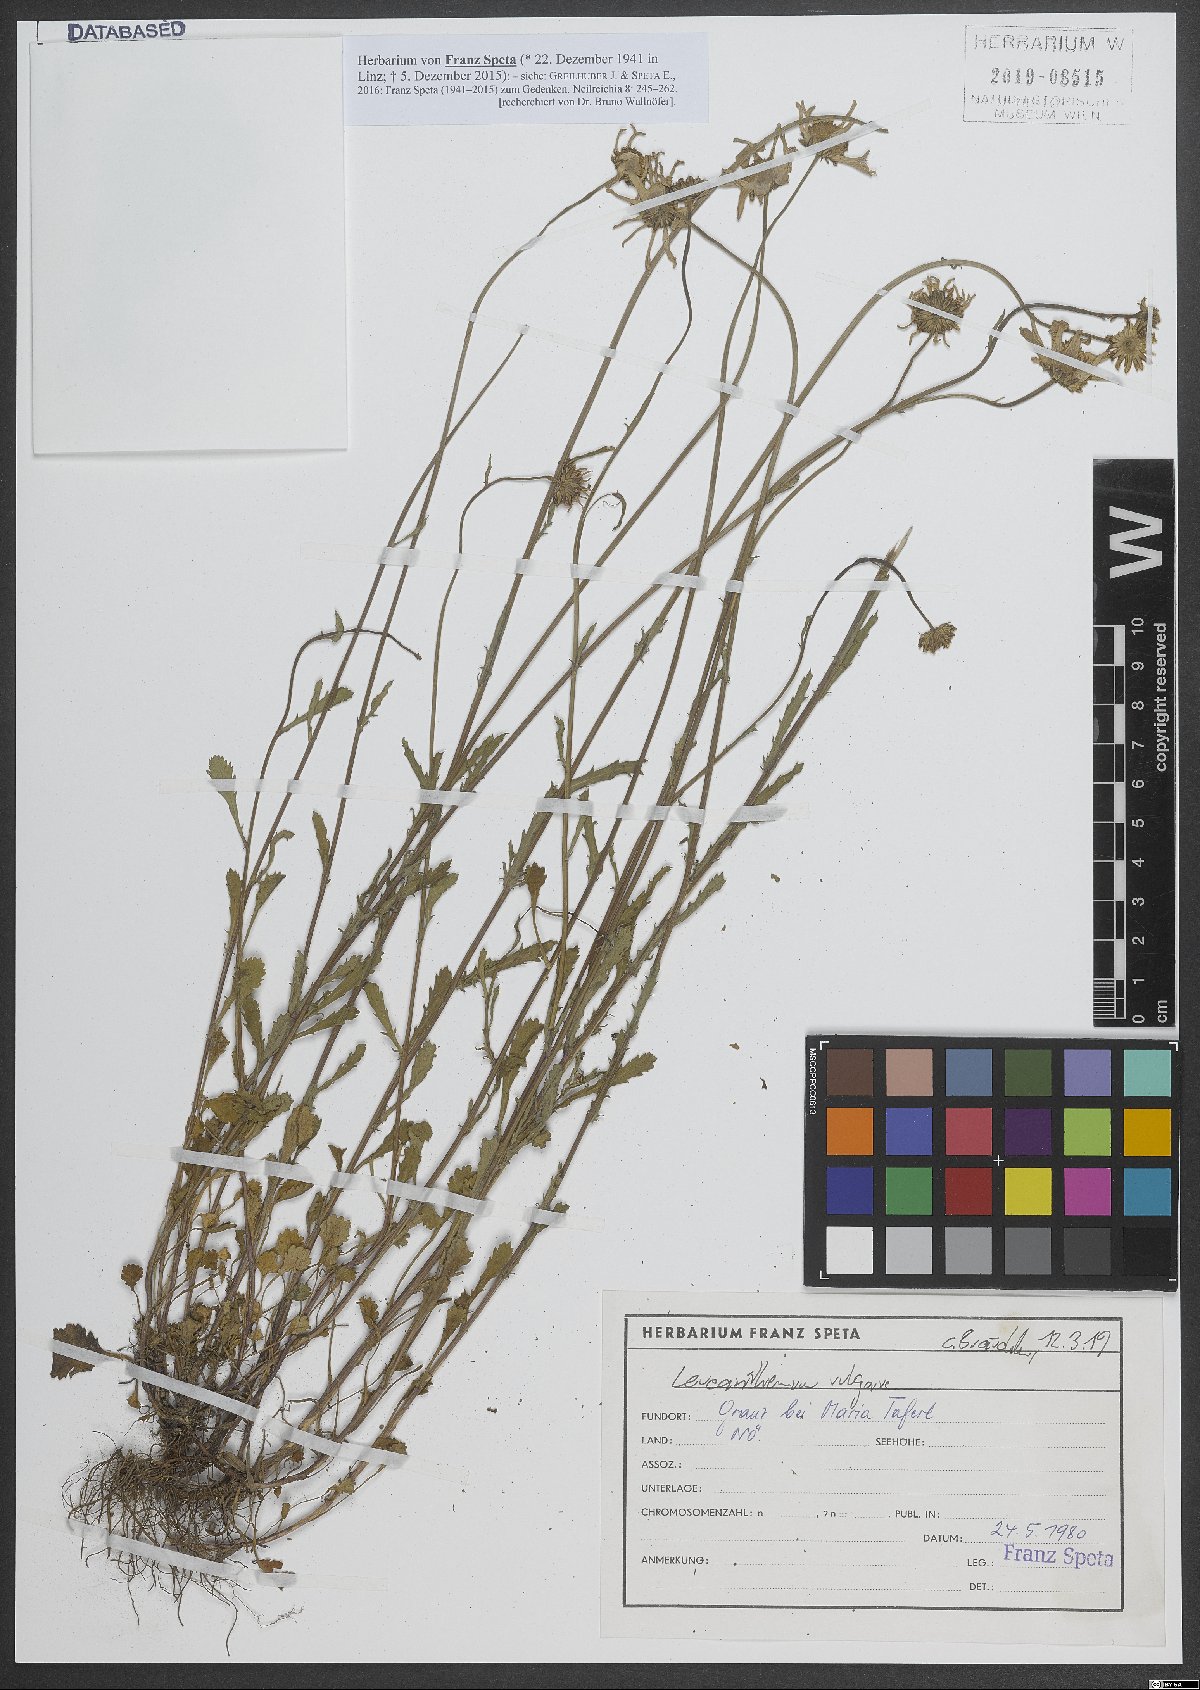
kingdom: Plantae
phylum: Tracheophyta
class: Magnoliopsida
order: Asterales
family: Asteraceae
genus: Leucanthemum
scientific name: Leucanthemum vulgare
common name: Oxeye daisy
